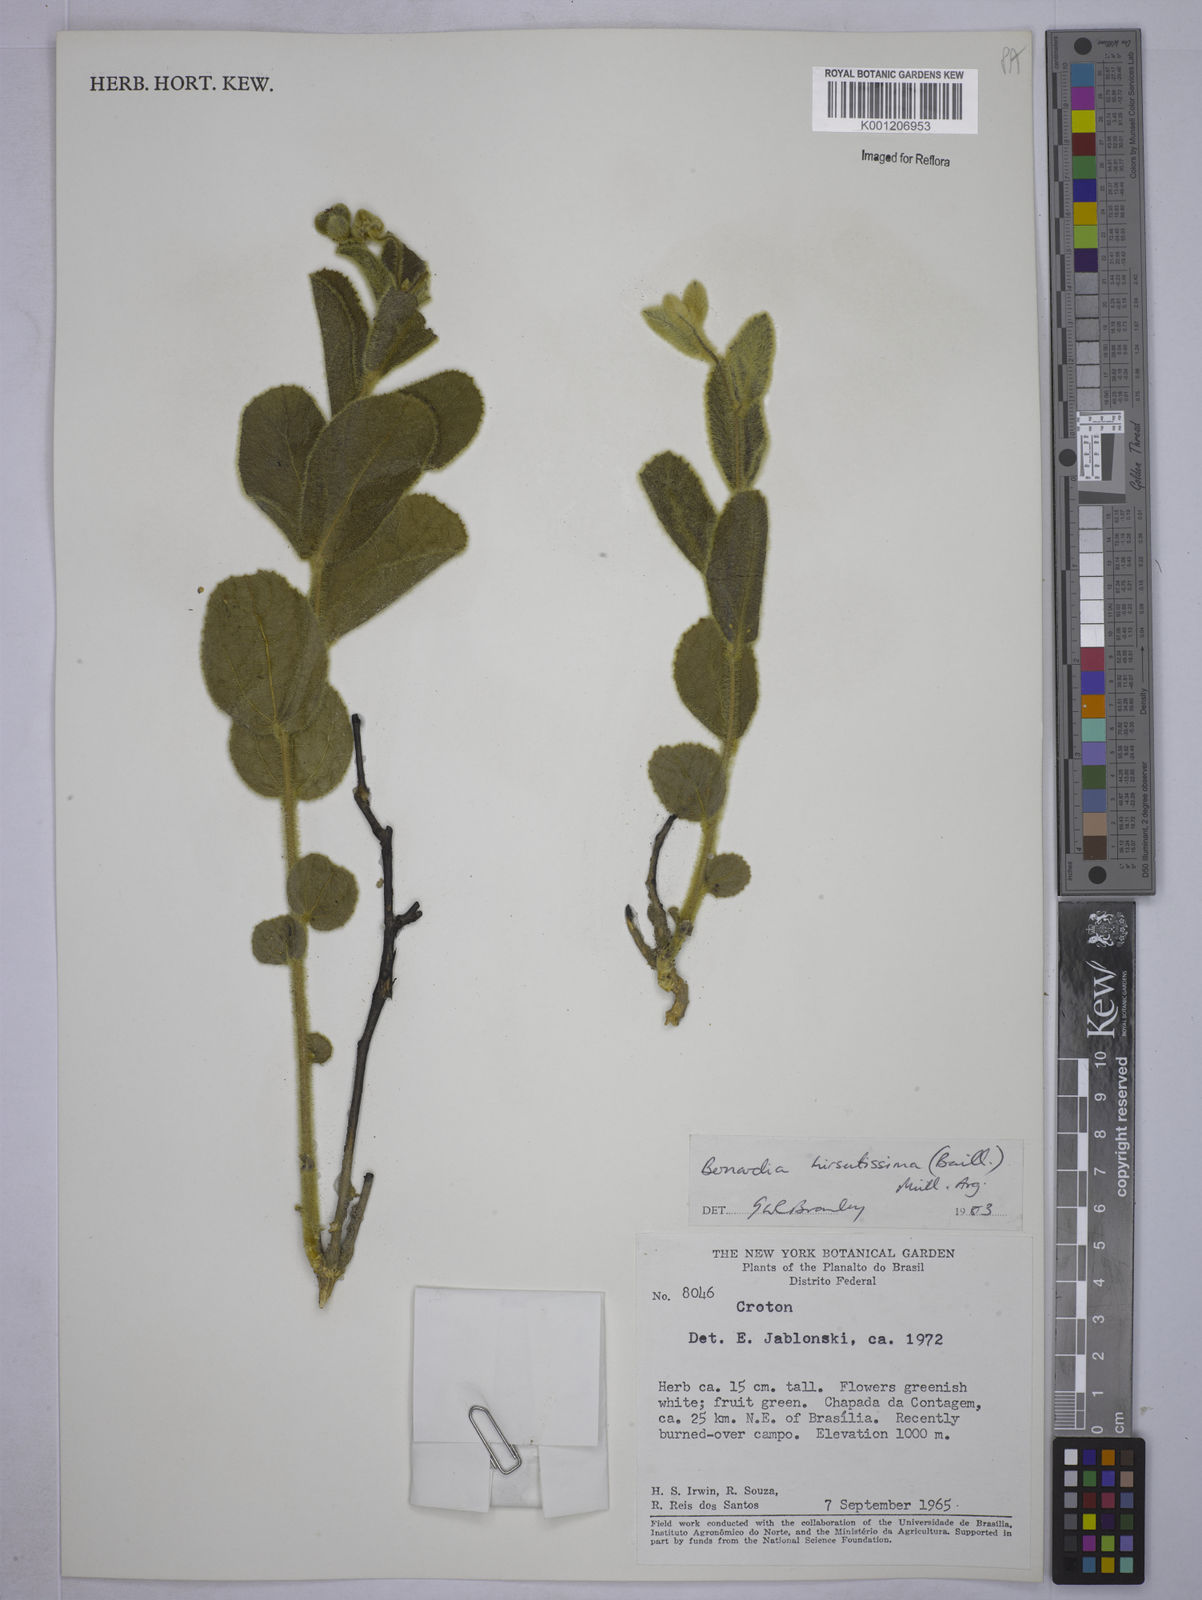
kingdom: Plantae
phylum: Tracheophyta
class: Magnoliopsida
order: Malpighiales
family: Euphorbiaceae
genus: Bernardia
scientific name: Bernardia
